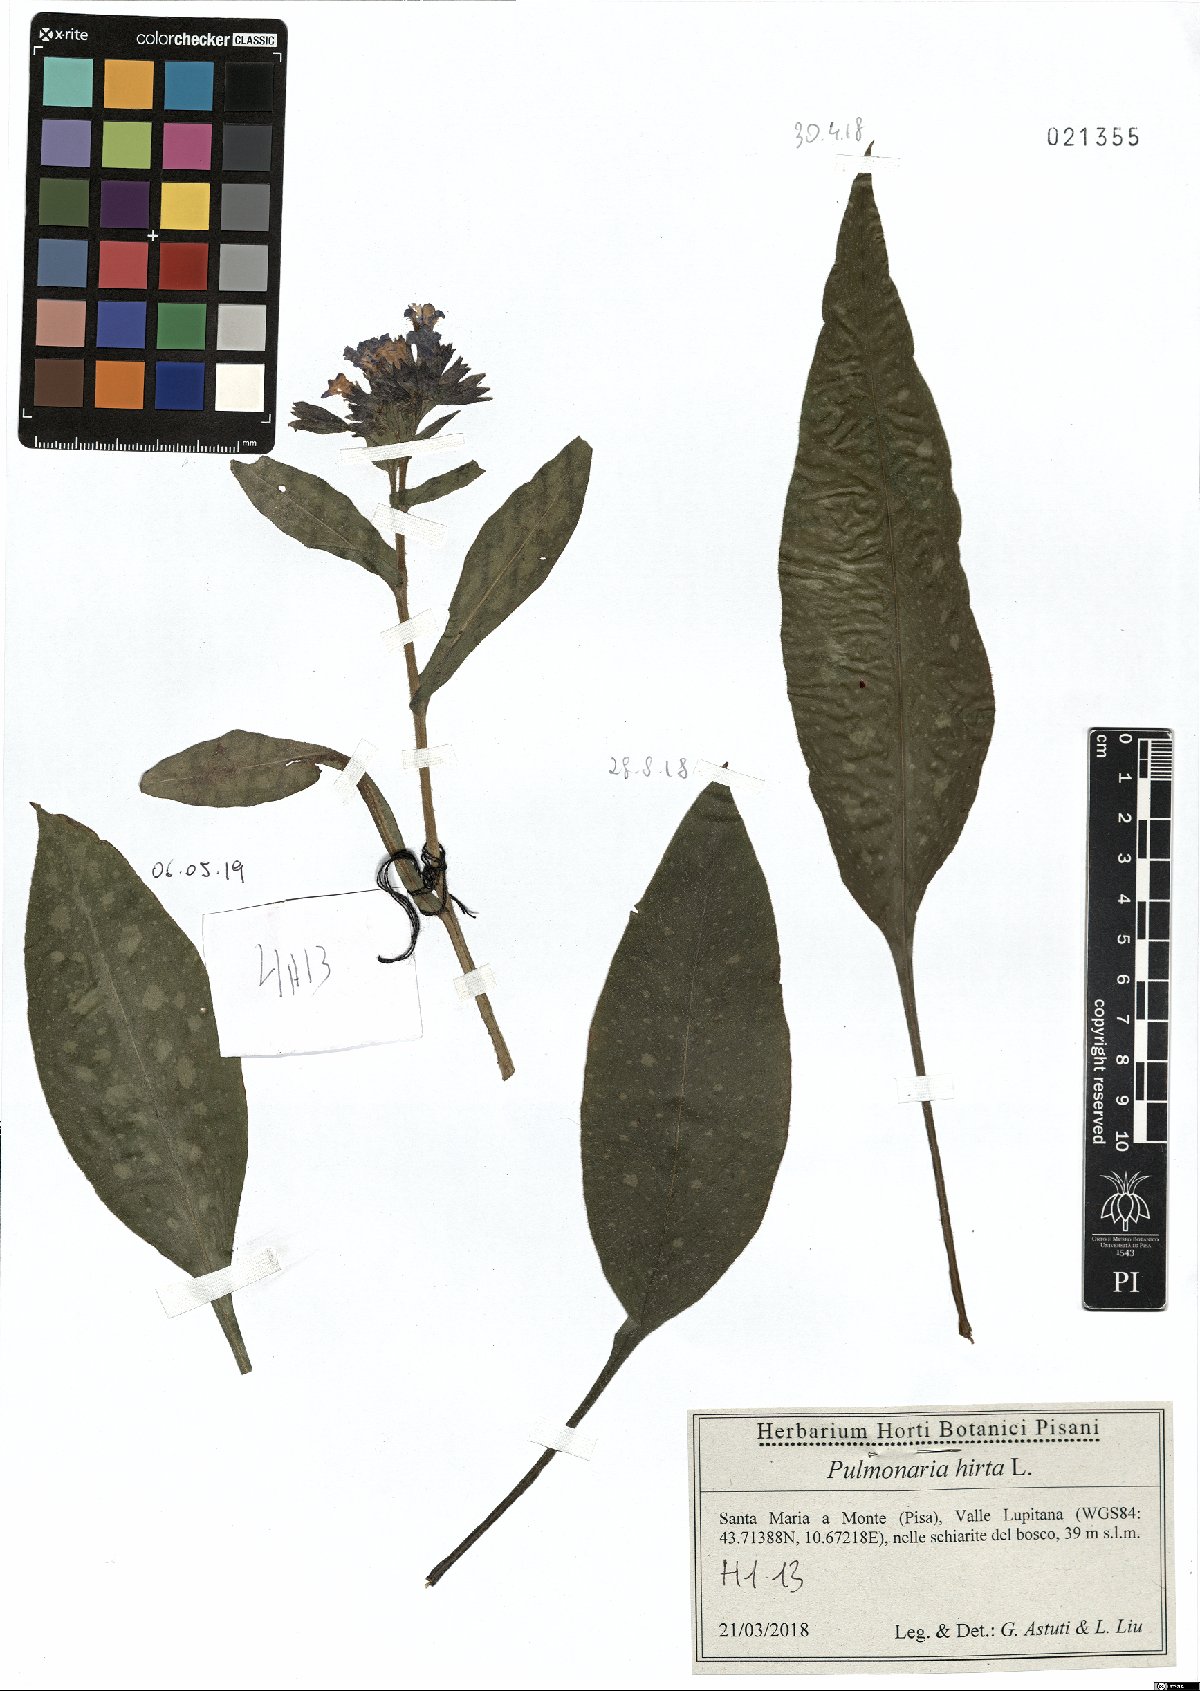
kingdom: Plantae
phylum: Tracheophyta
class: Magnoliopsida
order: Boraginales
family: Boraginaceae
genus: Pulmonaria
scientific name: Pulmonaria hirta
